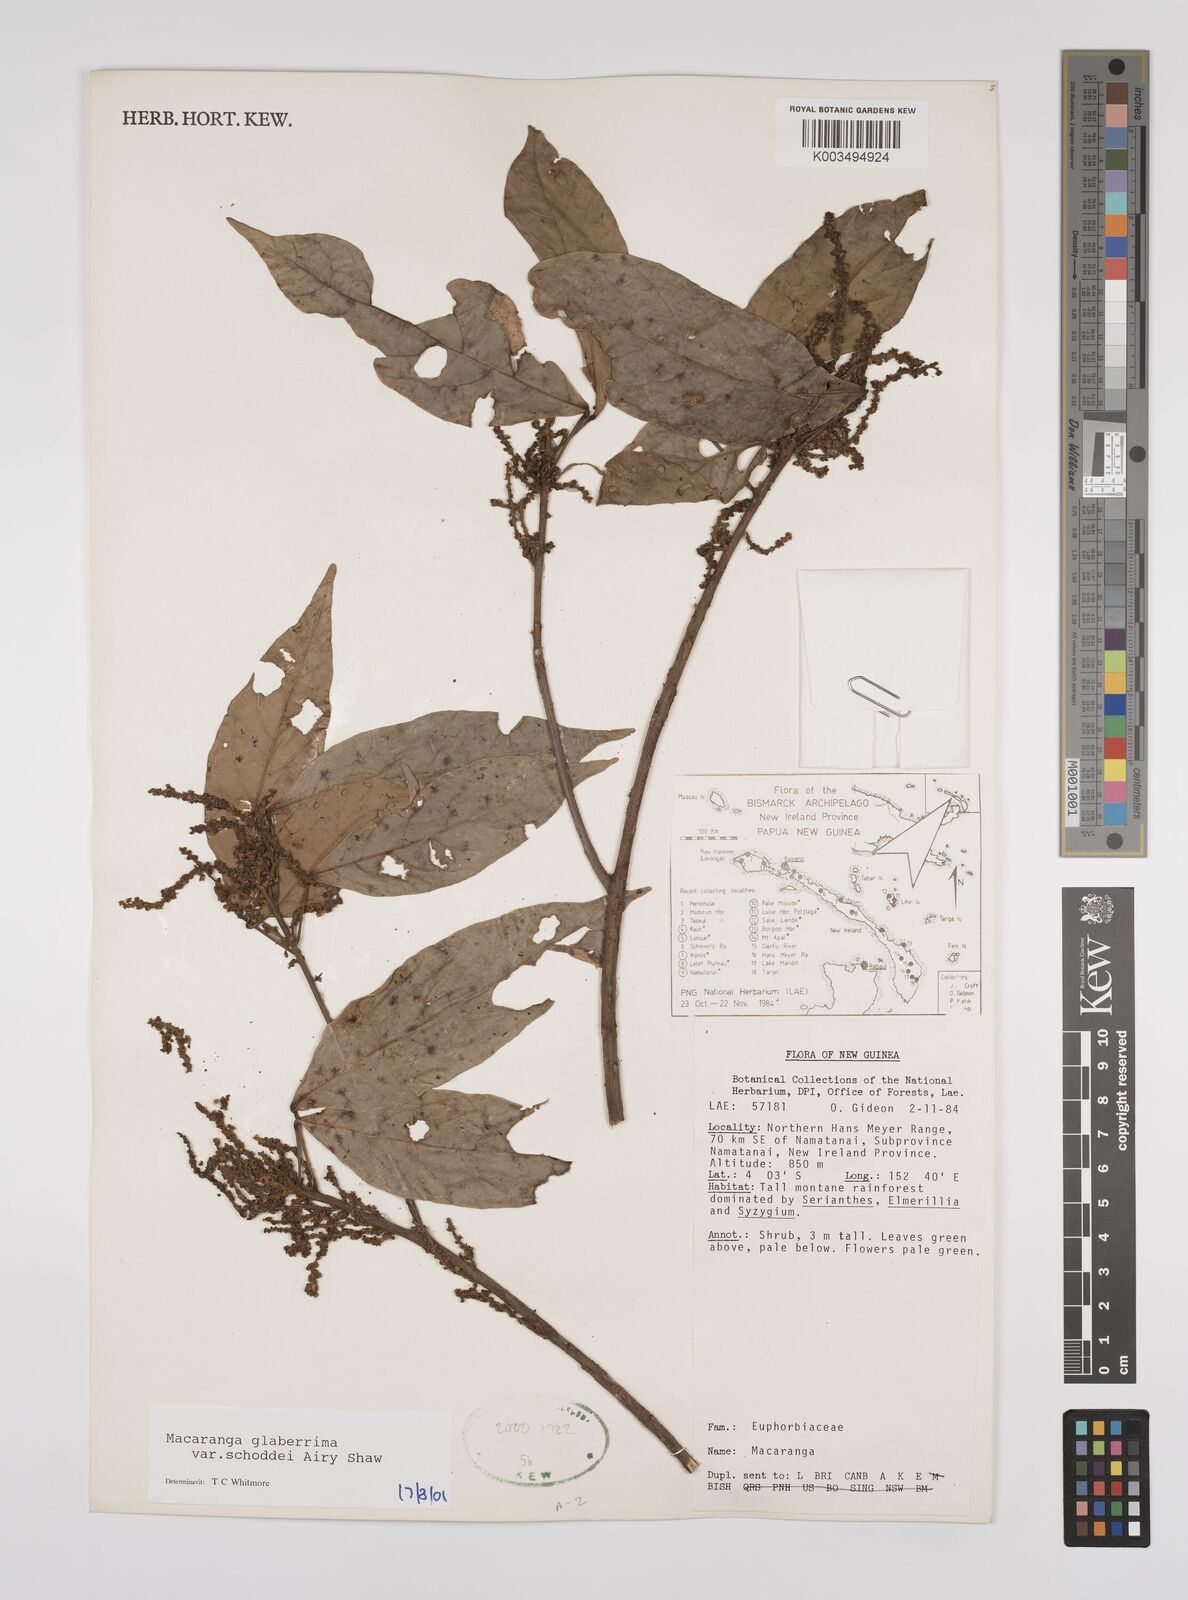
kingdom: Plantae
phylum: Tracheophyta
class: Magnoliopsida
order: Malpighiales
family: Euphorbiaceae
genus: Macaranga
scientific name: Macaranga glaberrima
